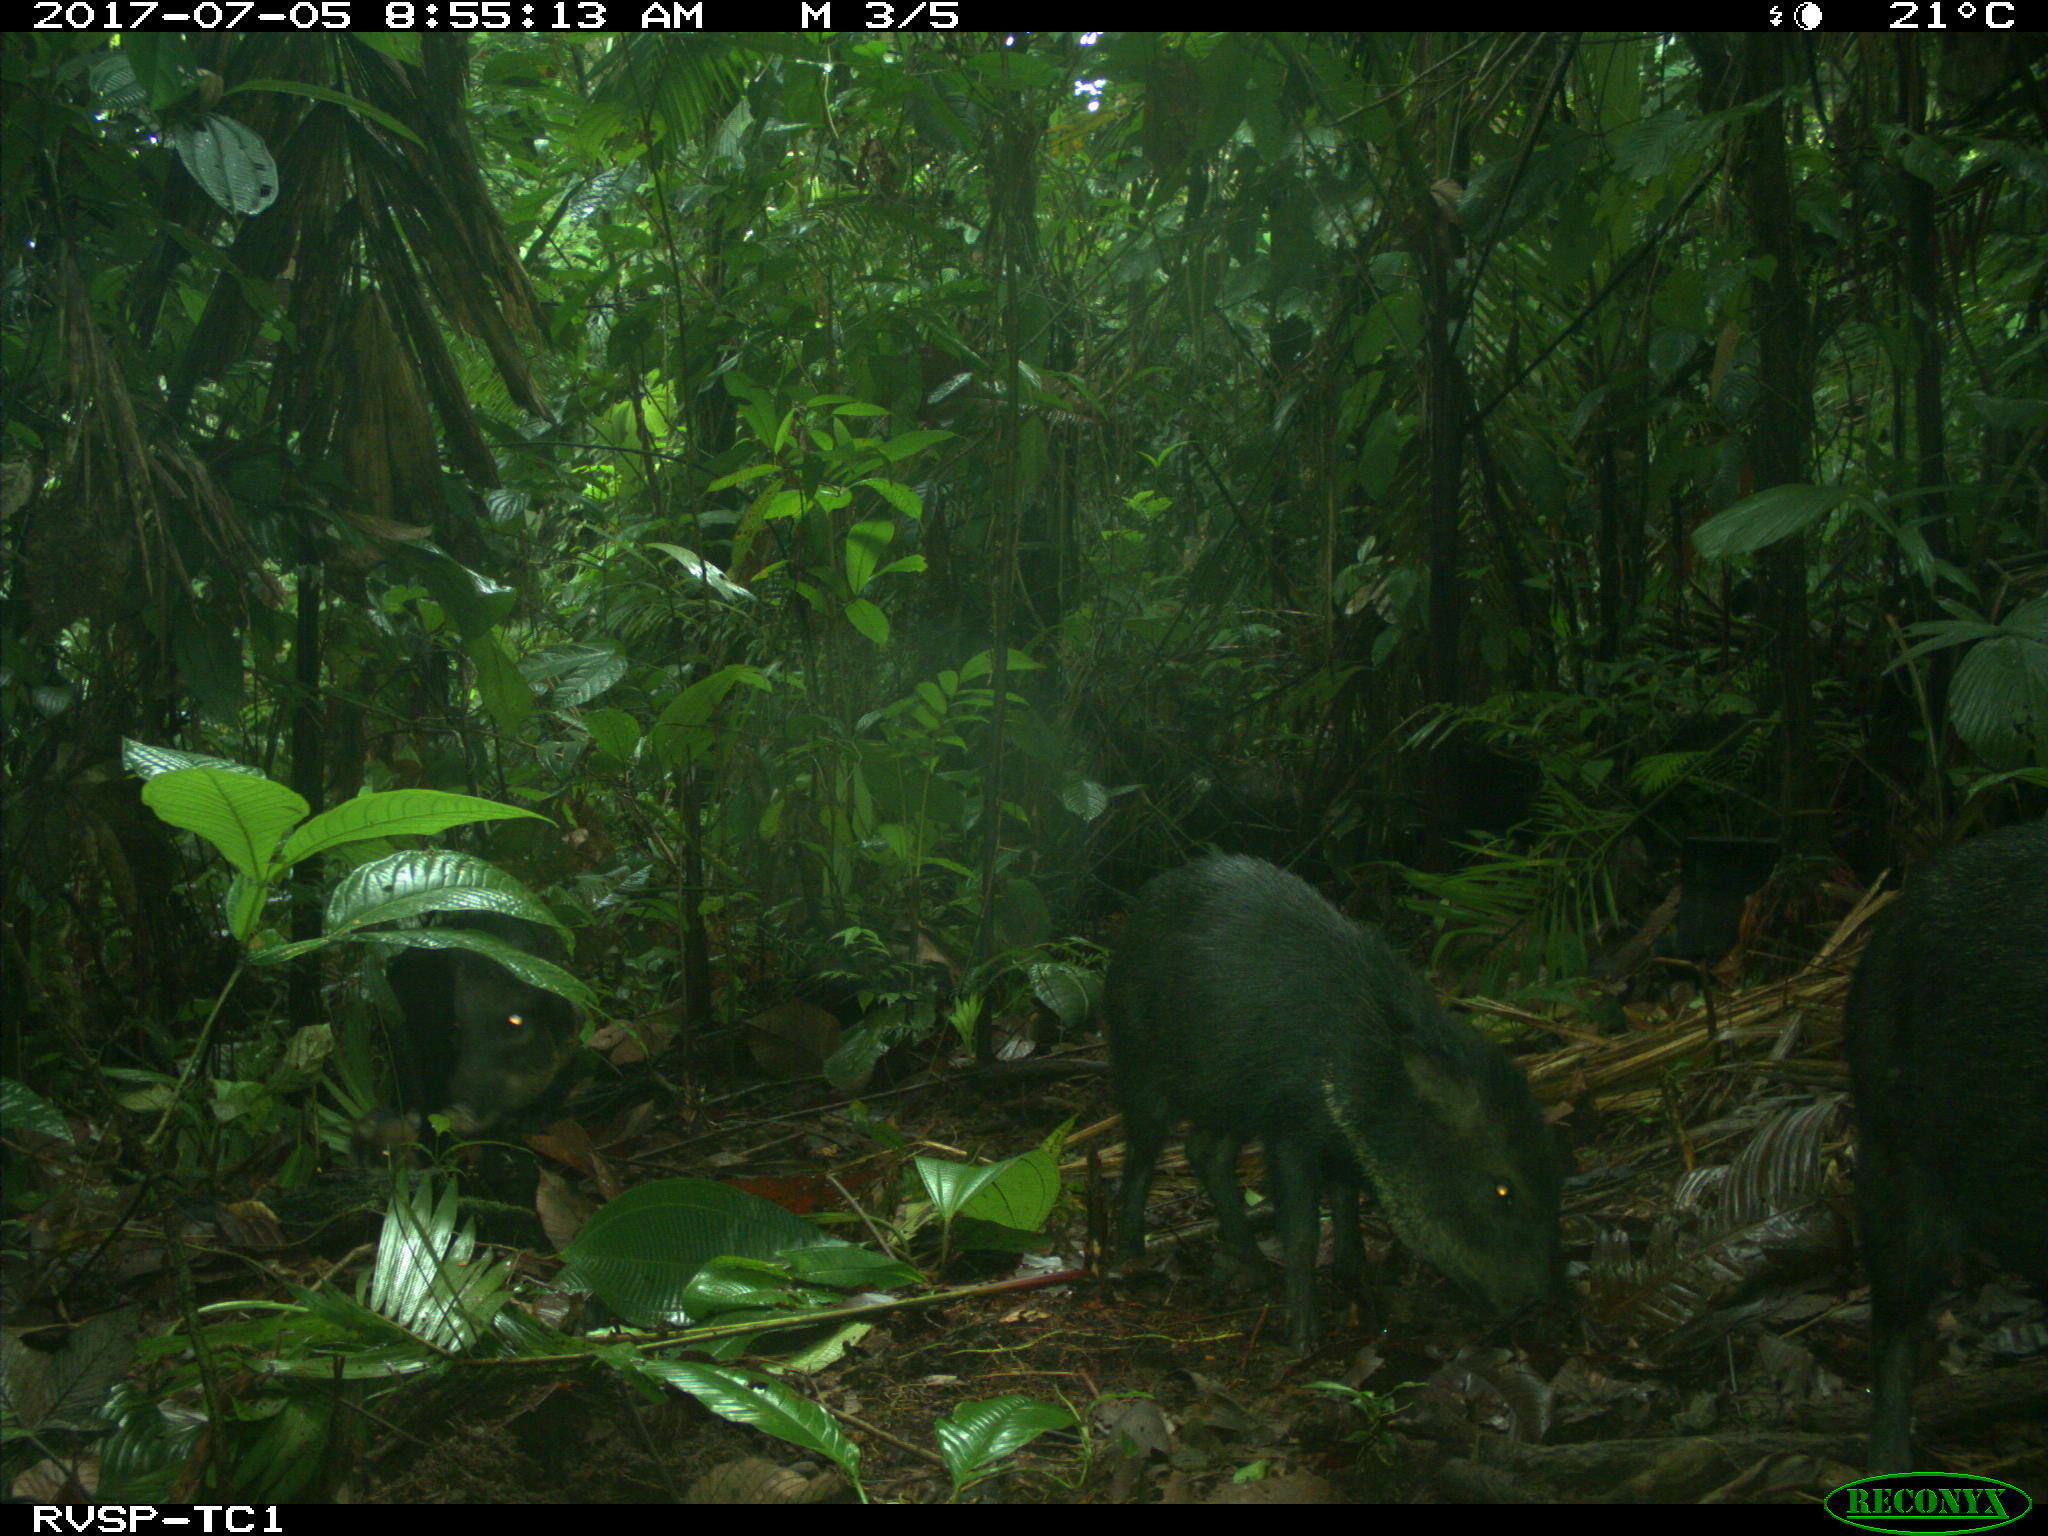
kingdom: Animalia
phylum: Chordata
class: Mammalia
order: Artiodactyla
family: Tayassuidae
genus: Pecari
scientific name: Pecari tajacu
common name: Collared peccary
